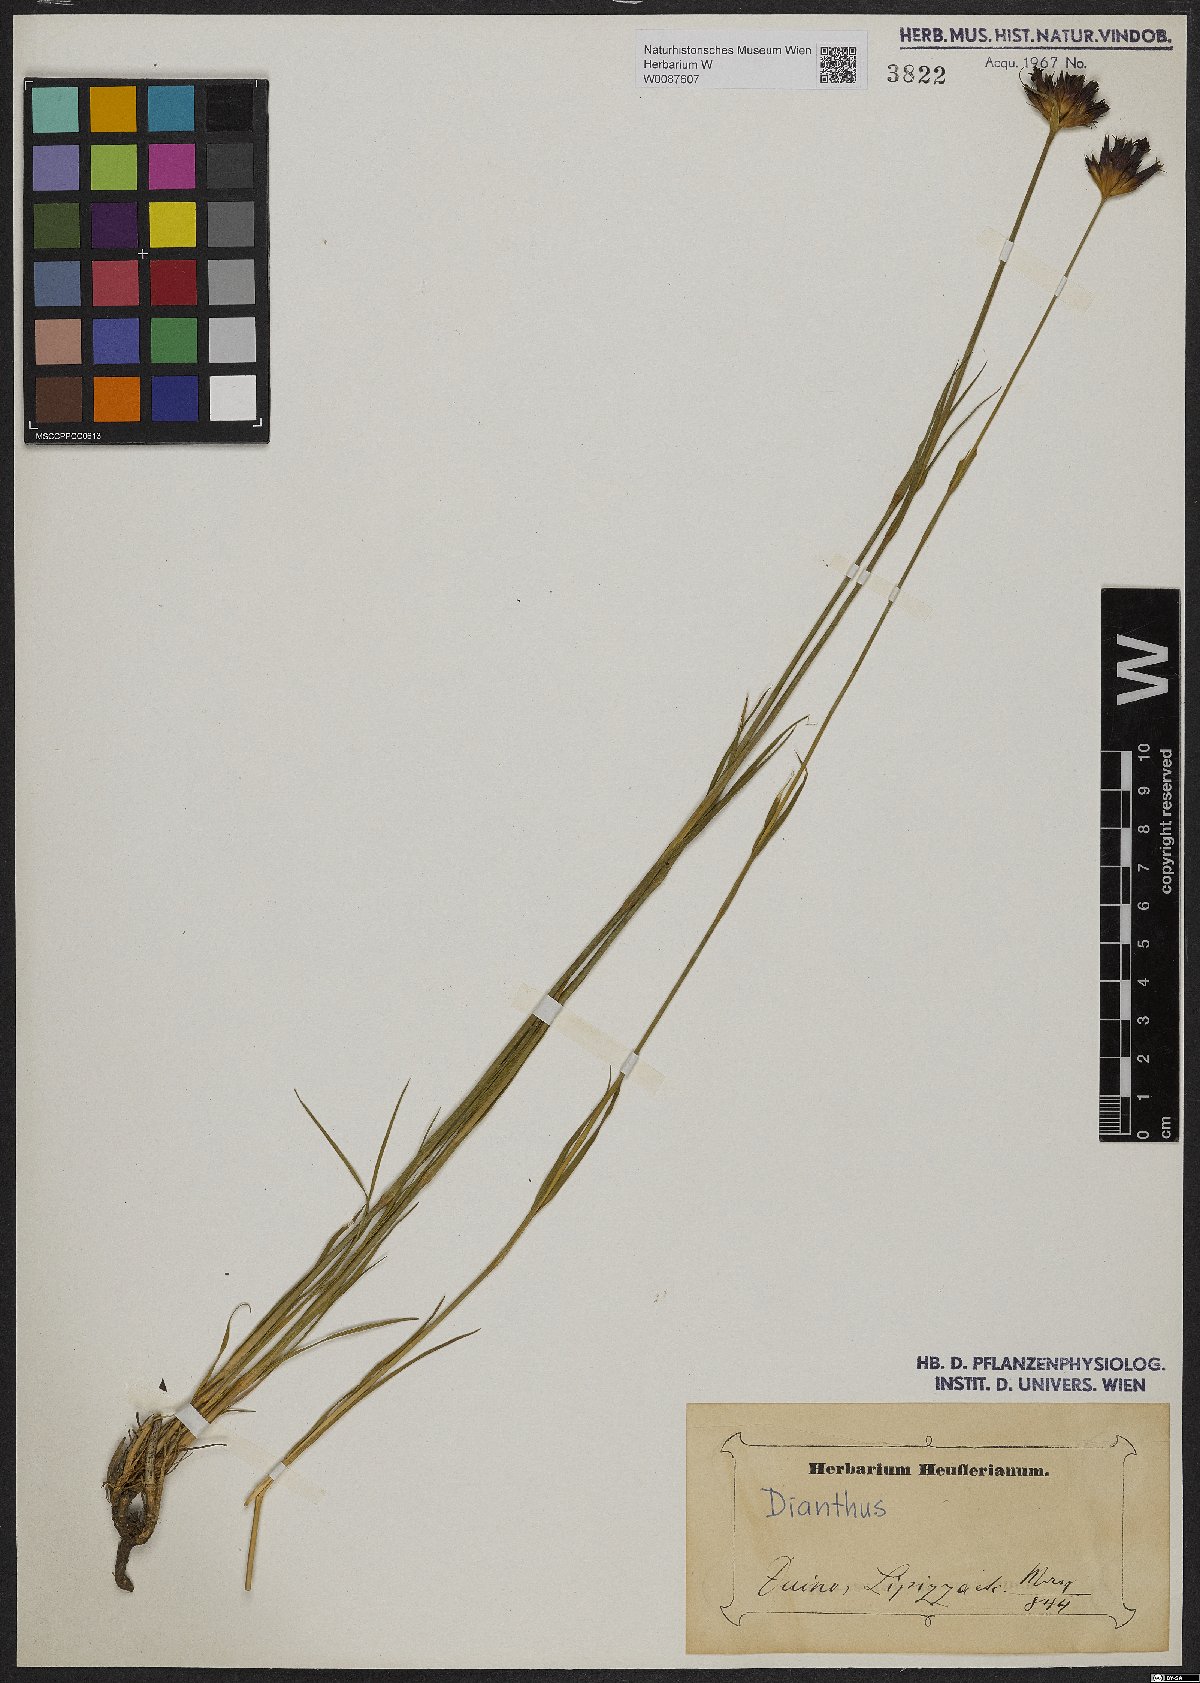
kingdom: Plantae
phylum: Tracheophyta
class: Magnoliopsida
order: Caryophyllales
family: Caryophyllaceae
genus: Dianthus
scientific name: Dianthus
